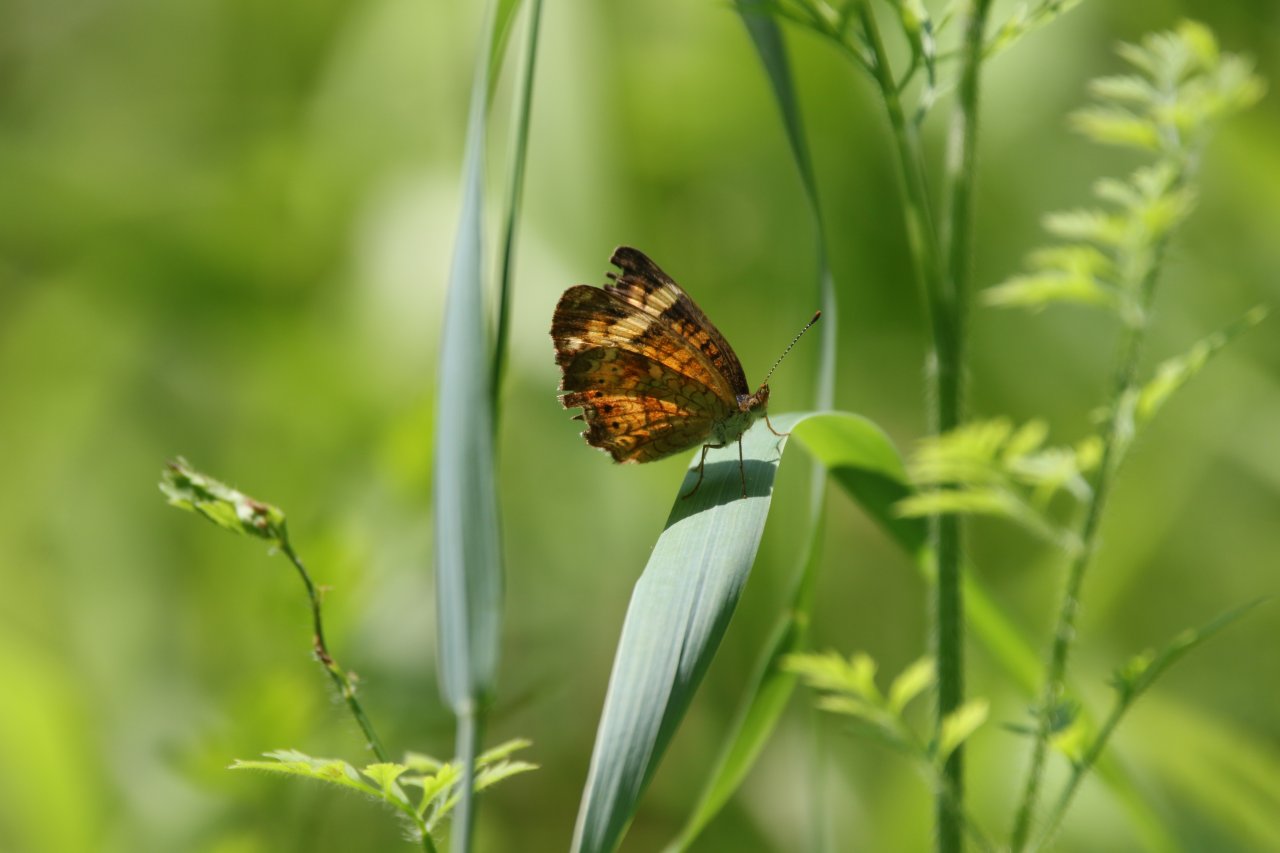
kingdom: Animalia
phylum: Arthropoda
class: Insecta
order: Lepidoptera
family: Nymphalidae
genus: Phyciodes
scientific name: Phyciodes tharos
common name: Northern Crescent
